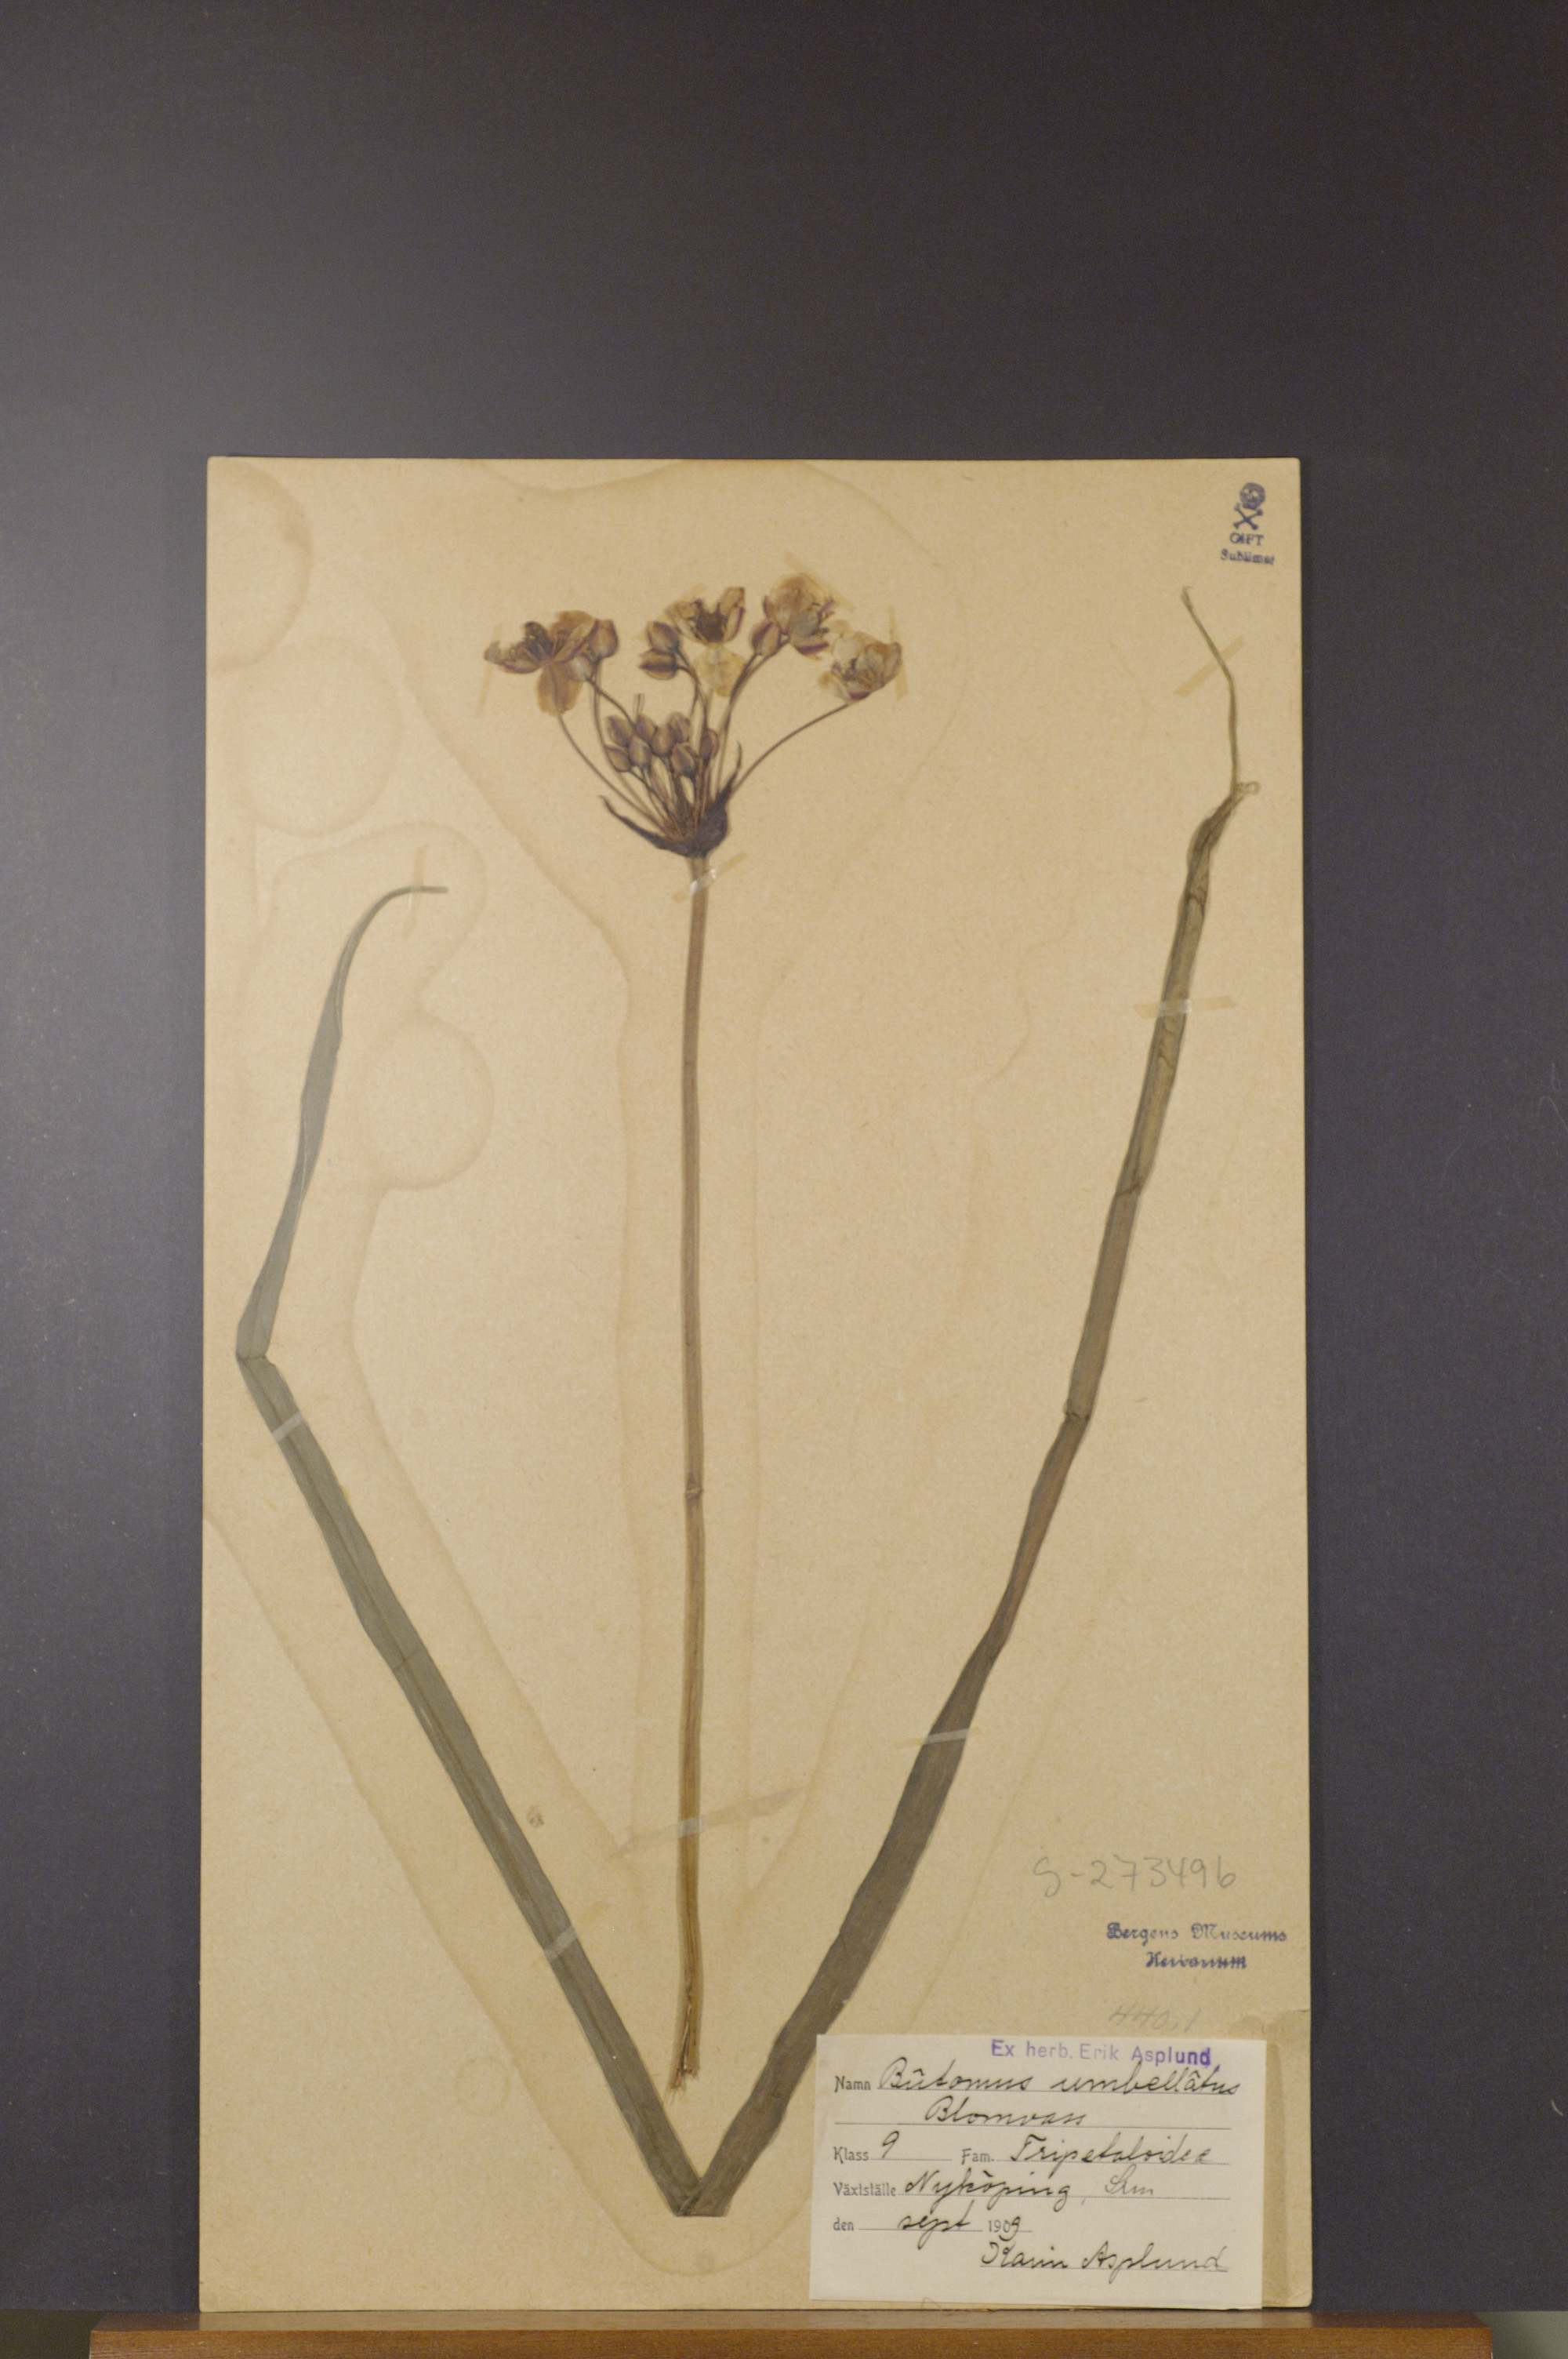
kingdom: Plantae
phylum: Tracheophyta
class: Liliopsida
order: Alismatales
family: Butomaceae
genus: Butomus
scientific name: Butomus umbellatus
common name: Flowering-rush
